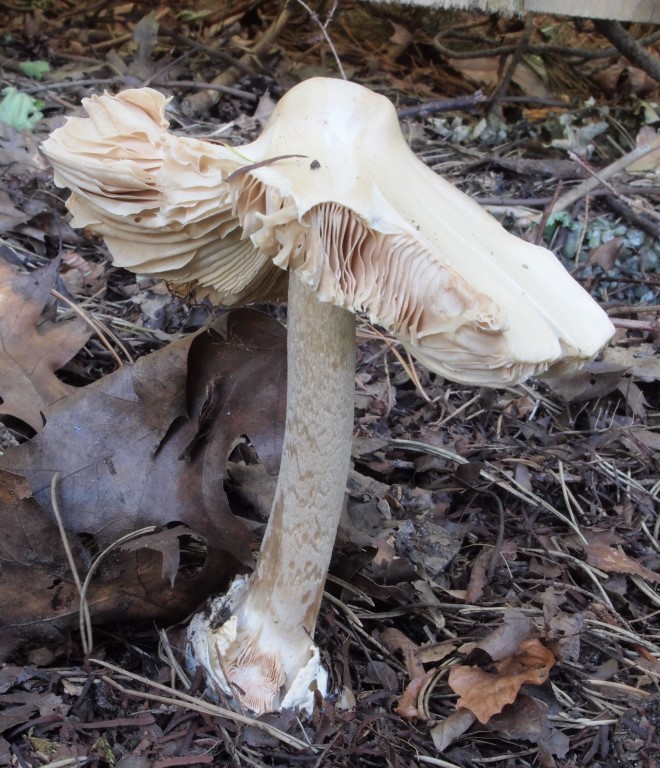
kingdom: Fungi
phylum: Basidiomycota
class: Agaricomycetes
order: Agaricales
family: Pluteaceae
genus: Volvopluteus
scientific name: Volvopluteus gloiocephalus
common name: høj posesvamp
